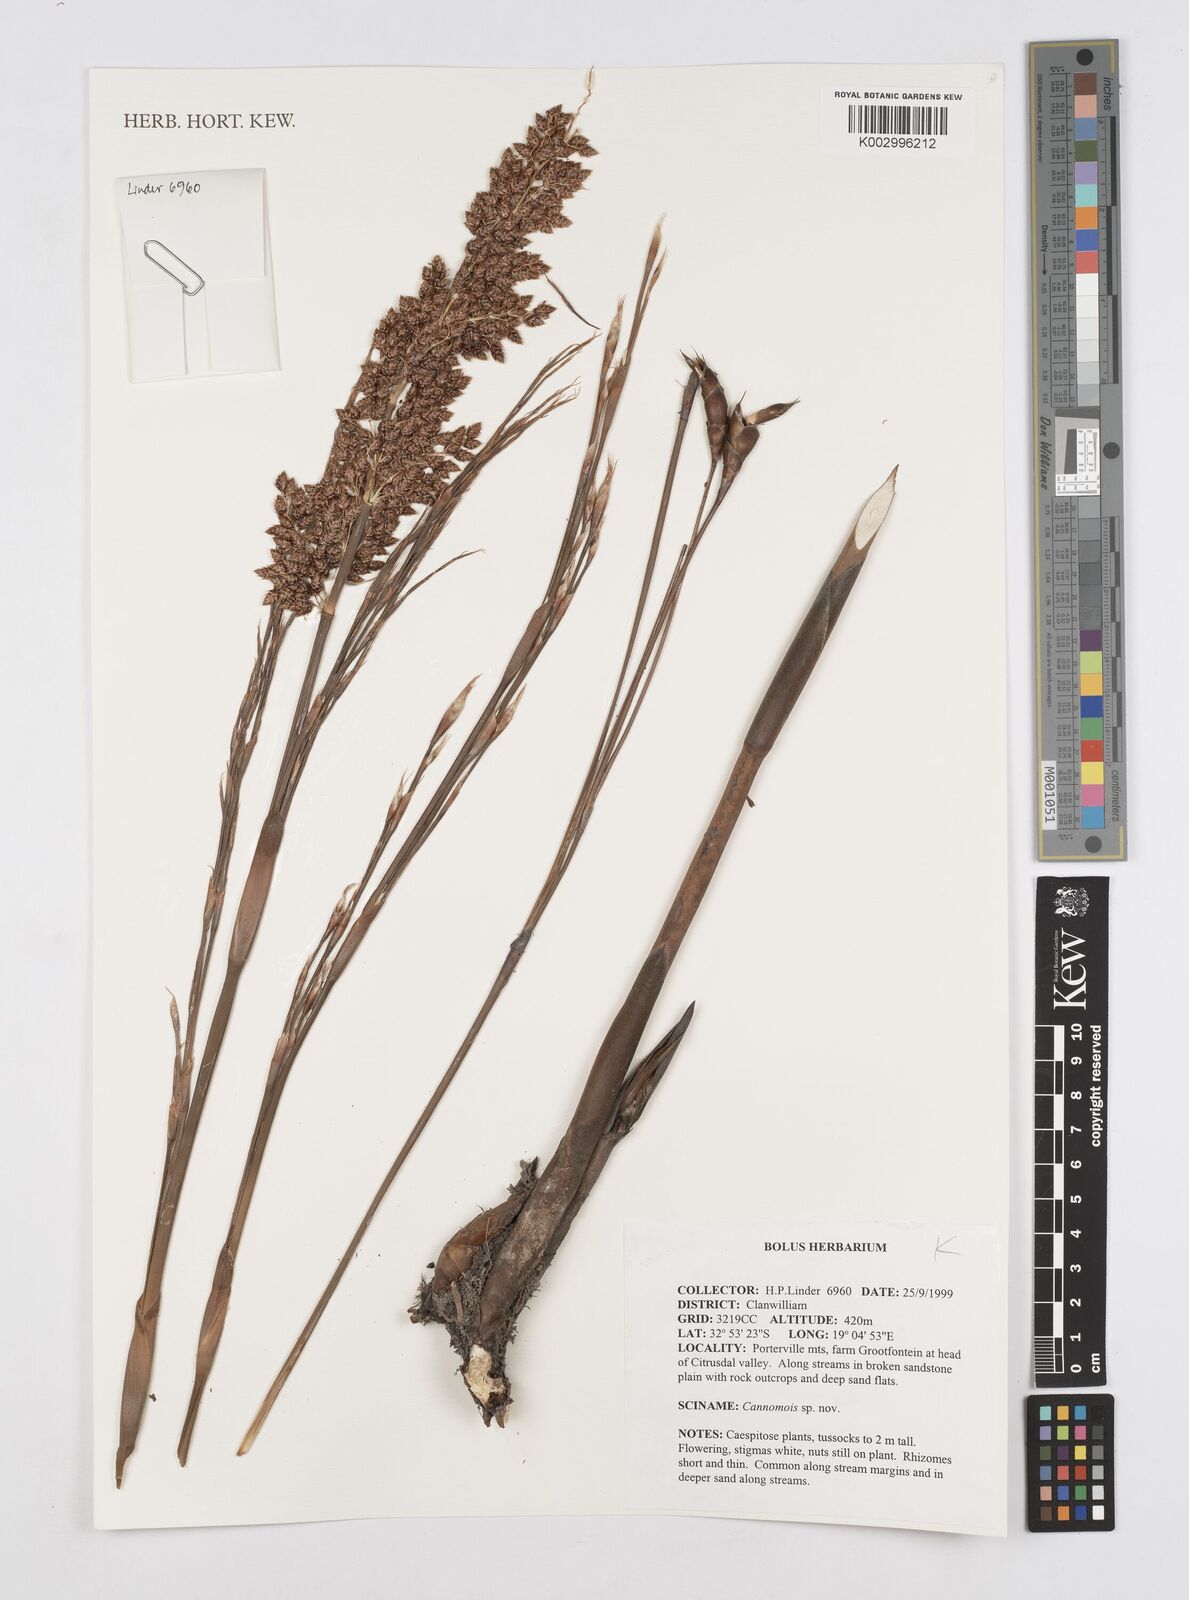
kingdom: Plantae
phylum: Tracheophyta
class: Liliopsida
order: Poales
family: Restionaceae
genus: Cannomois
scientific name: Cannomois
